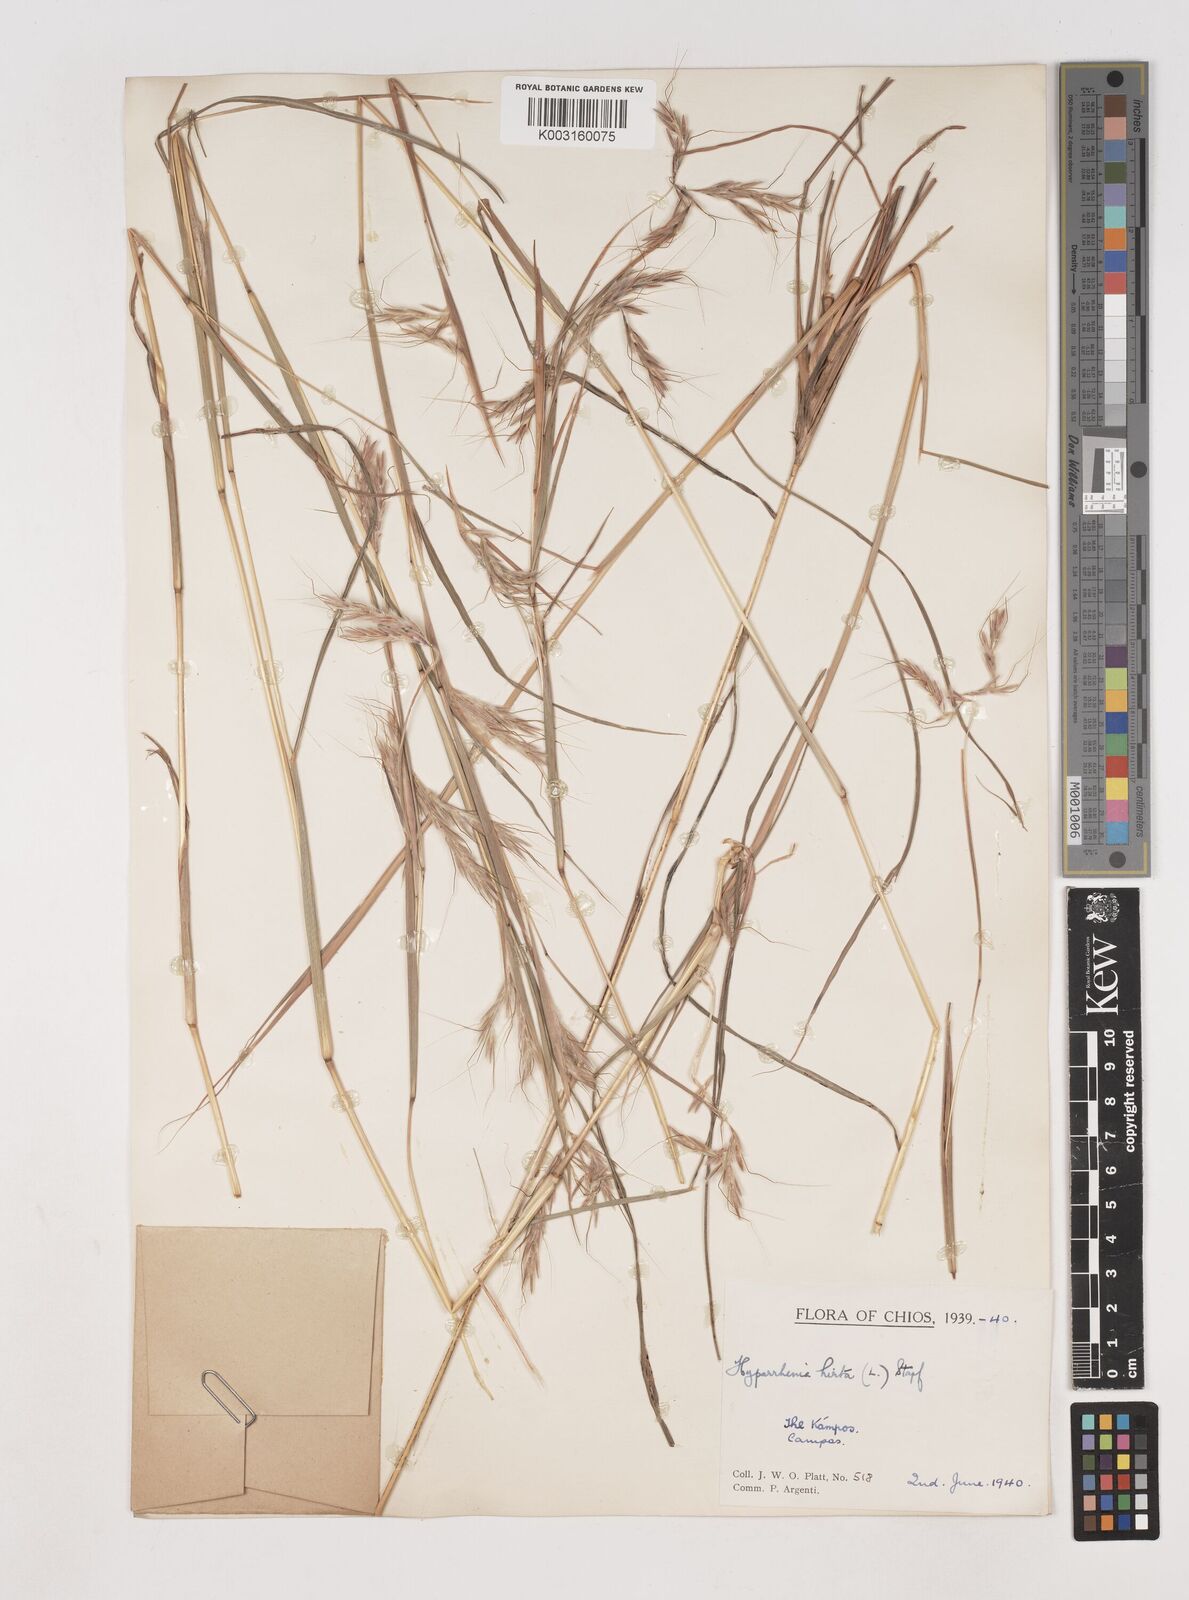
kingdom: Plantae
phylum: Tracheophyta
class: Liliopsida
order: Poales
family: Poaceae
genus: Hyparrhenia
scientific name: Hyparrhenia hirta
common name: Thatching grass
